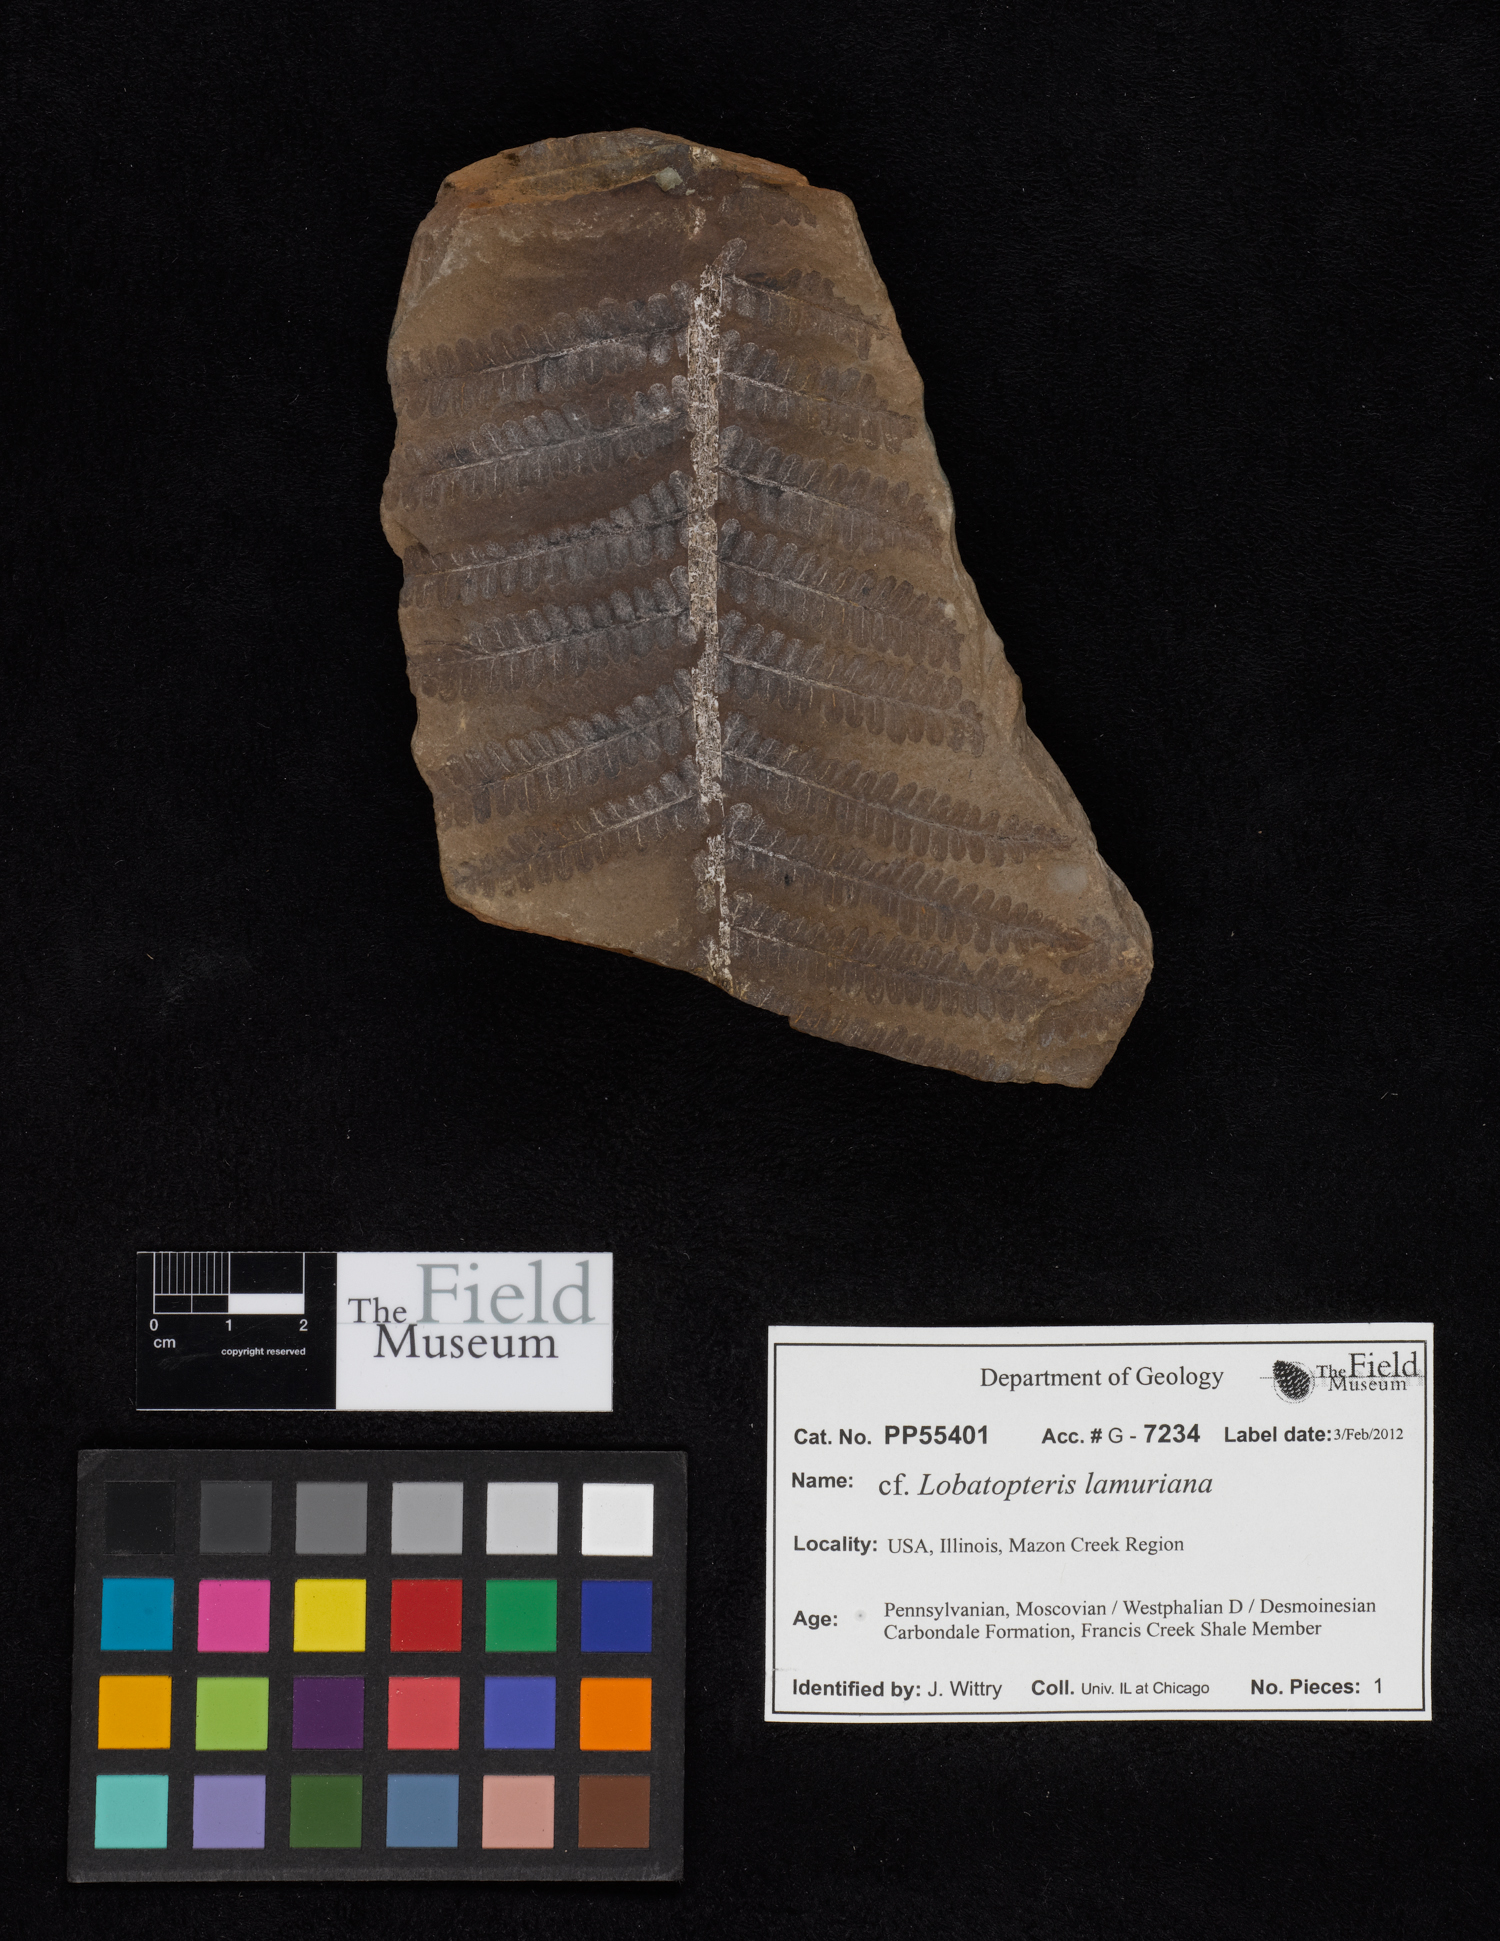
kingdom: Plantae
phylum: Tracheophyta
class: Polypodiopsida
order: Marattiales
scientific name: Marattiales
